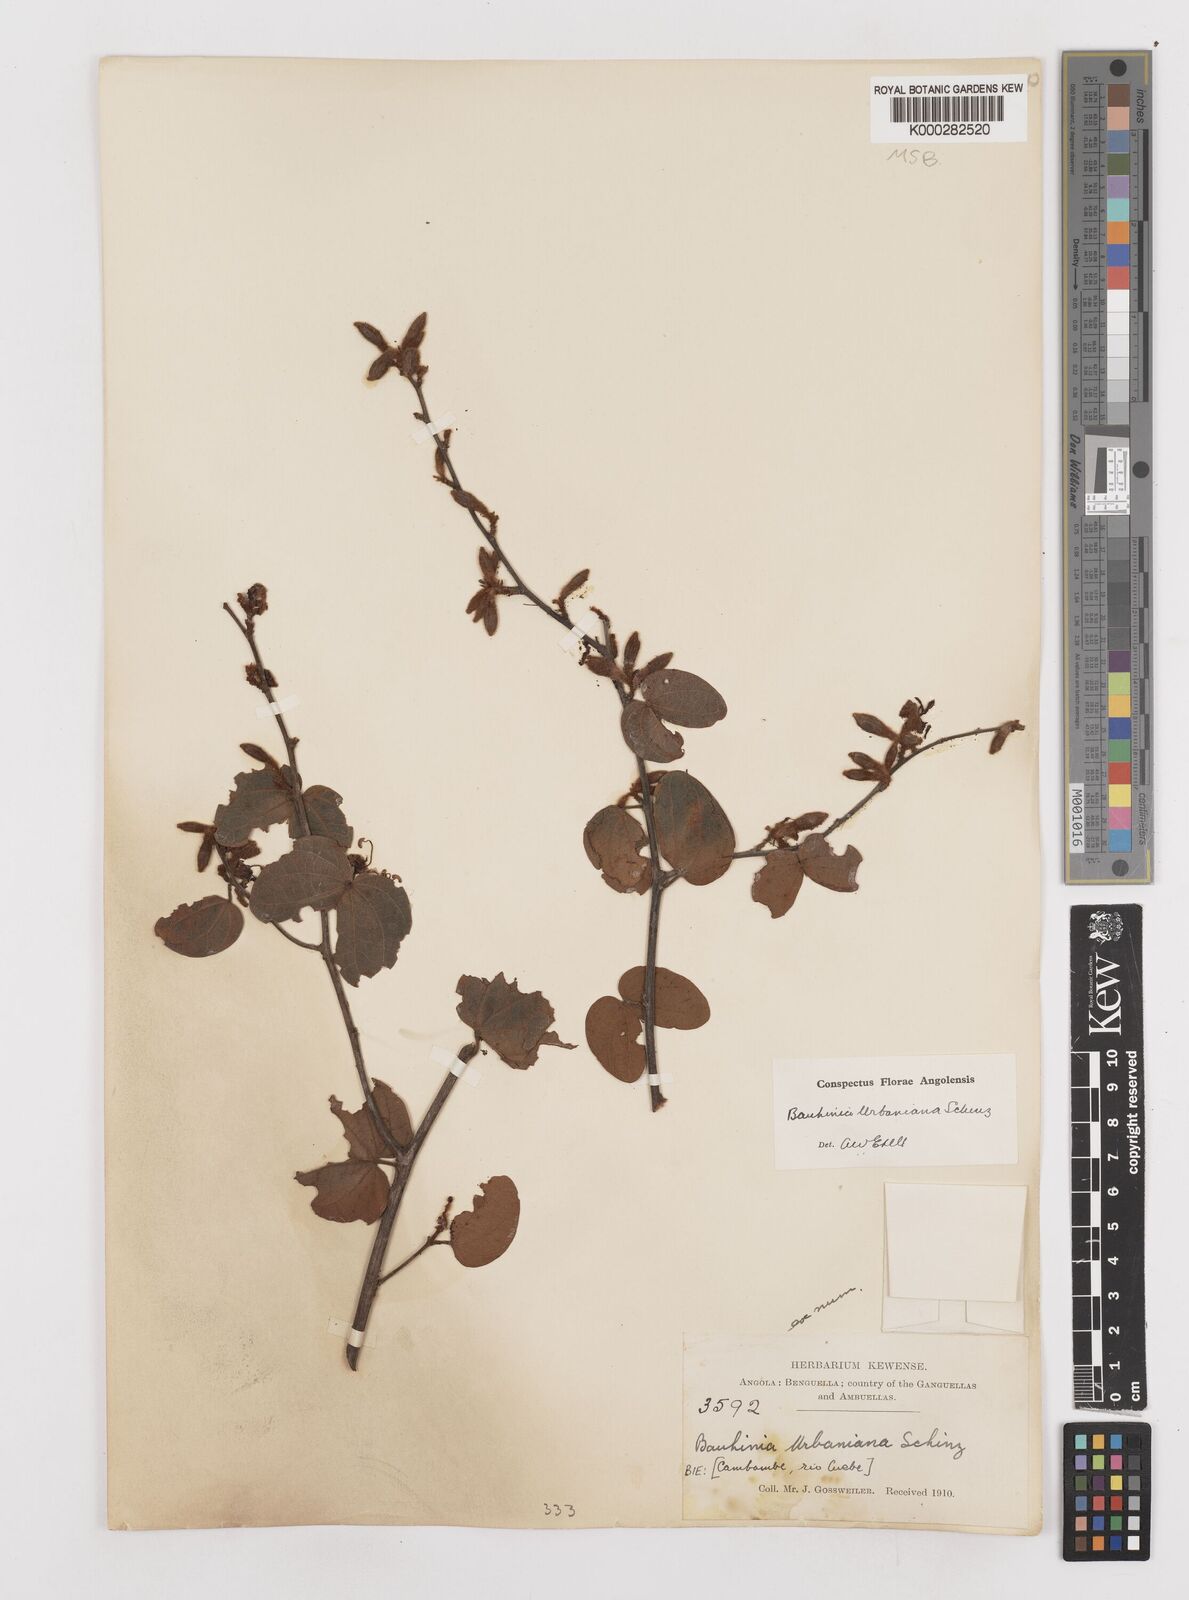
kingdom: Plantae
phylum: Tracheophyta
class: Liliopsida
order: Poales
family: Poaceae
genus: Digitaria
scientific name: Digitaria abyssinica
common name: African couchgrass
